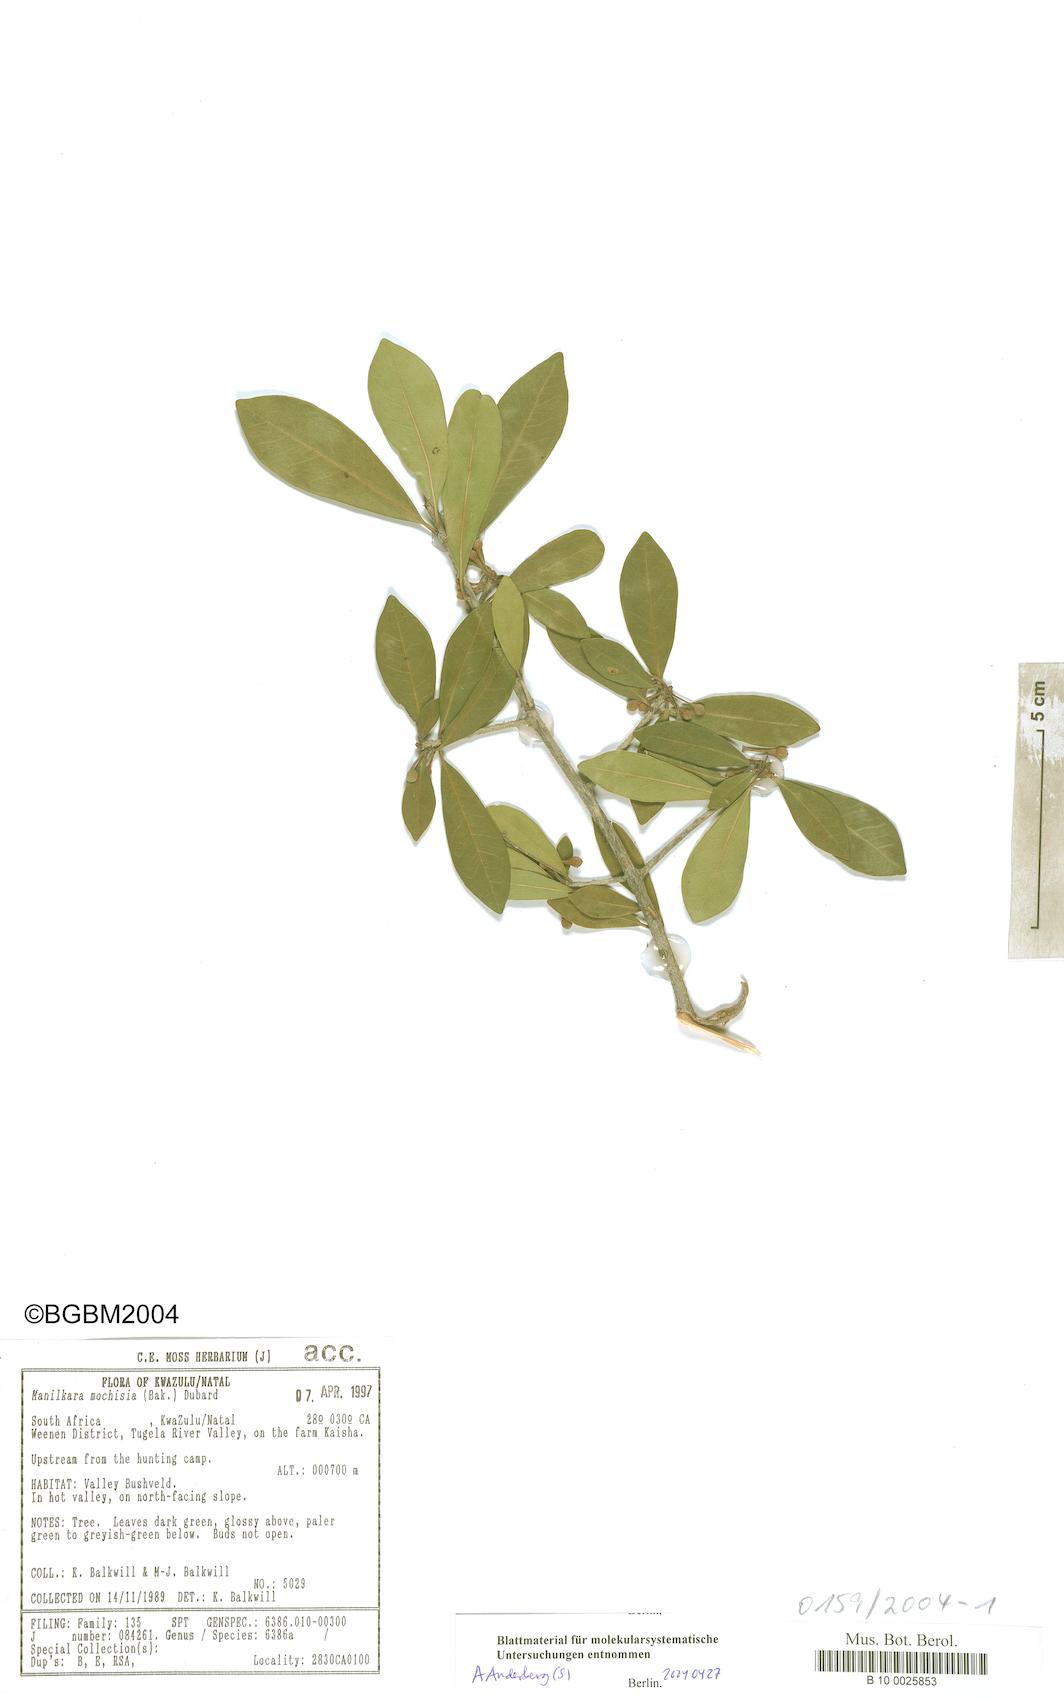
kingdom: Plantae
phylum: Tracheophyta
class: Magnoliopsida
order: Ericales
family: Sapotaceae
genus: Manilkara
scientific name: Manilkara mochisia
